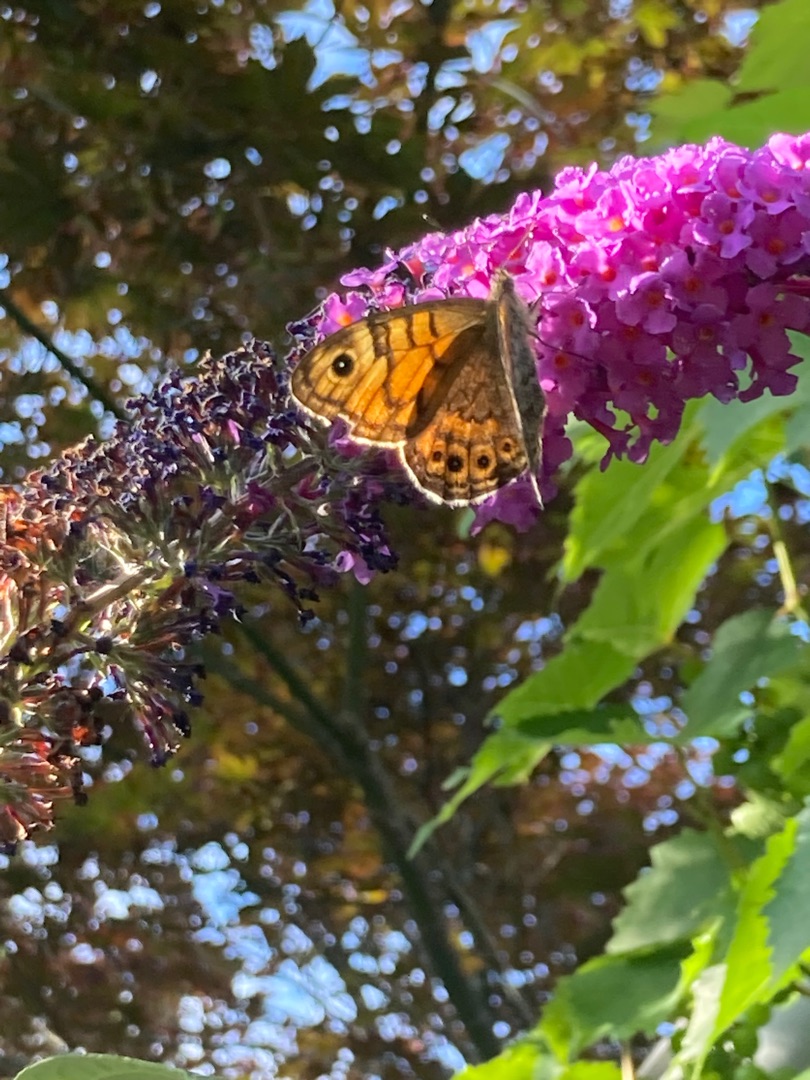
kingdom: Animalia
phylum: Arthropoda
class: Insecta
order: Lepidoptera
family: Nymphalidae
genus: Pararge
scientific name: Pararge Lasiommata megera
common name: Vejrandøje
